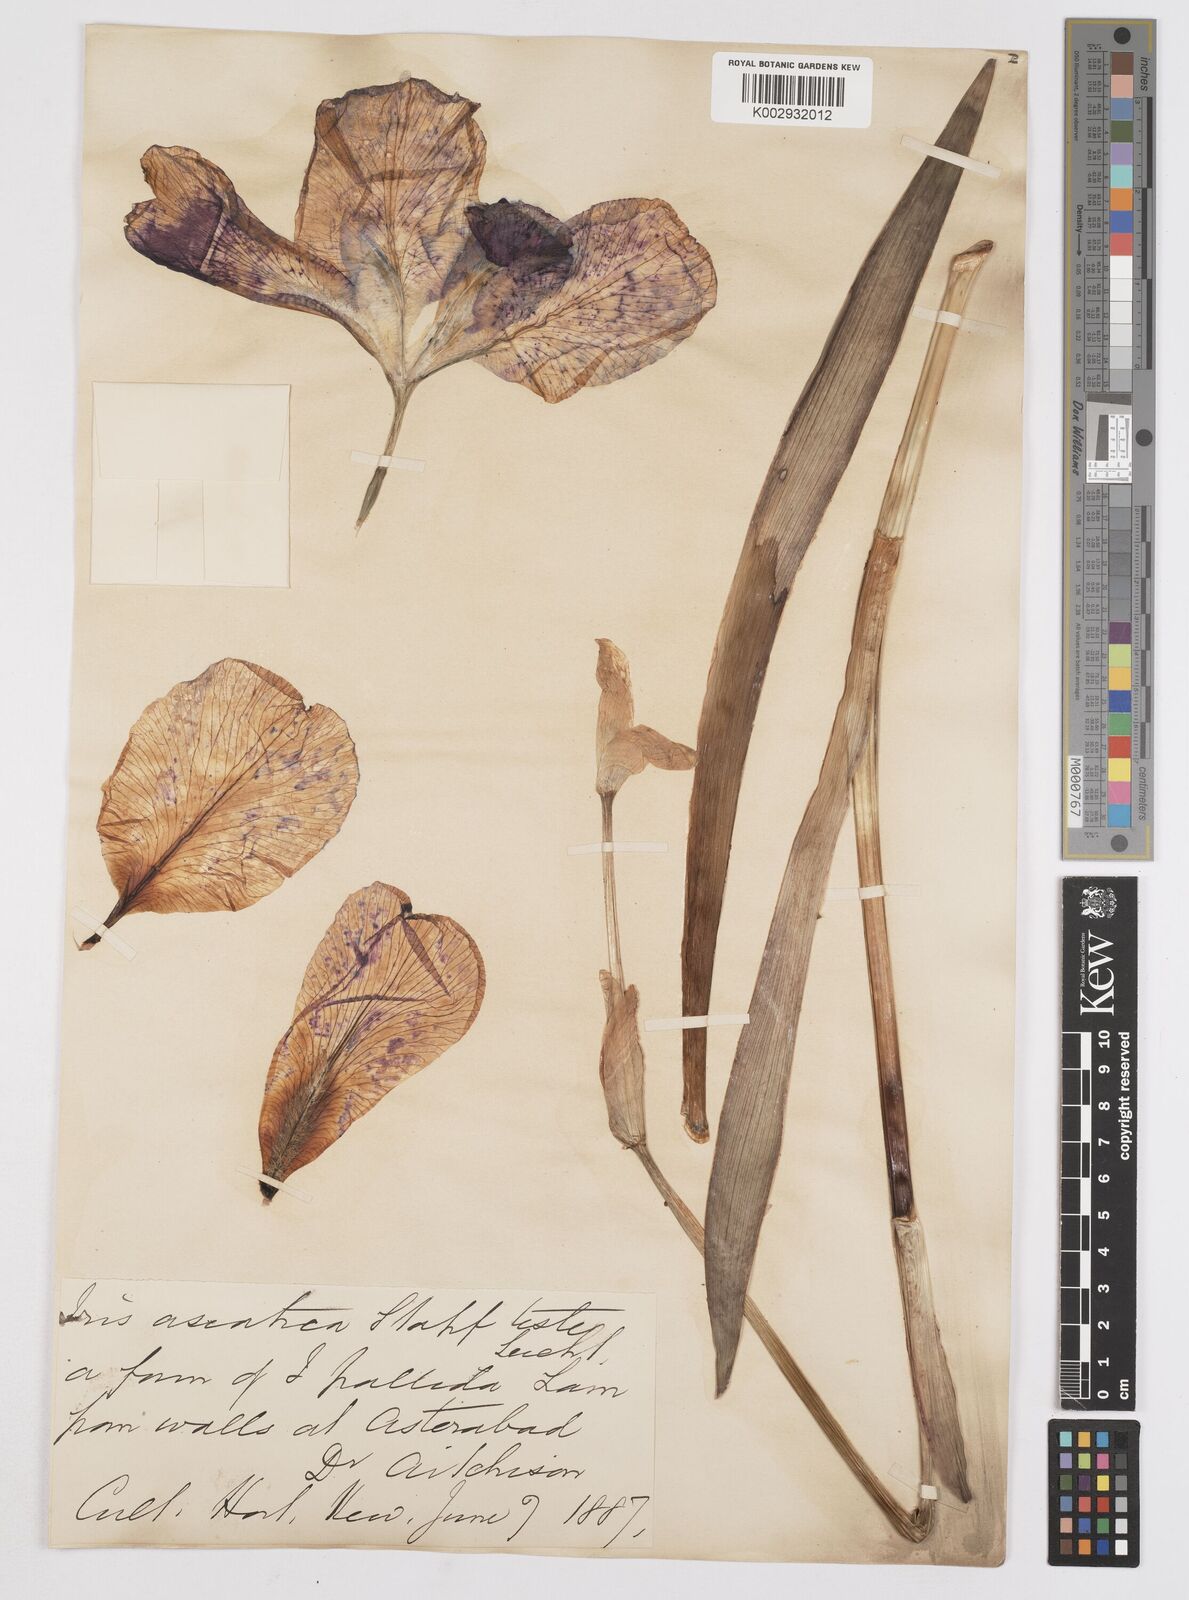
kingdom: Plantae
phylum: Tracheophyta
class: Liliopsida
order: Asparagales
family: Iridaceae
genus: Iris
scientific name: Iris germanica
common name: German iris
